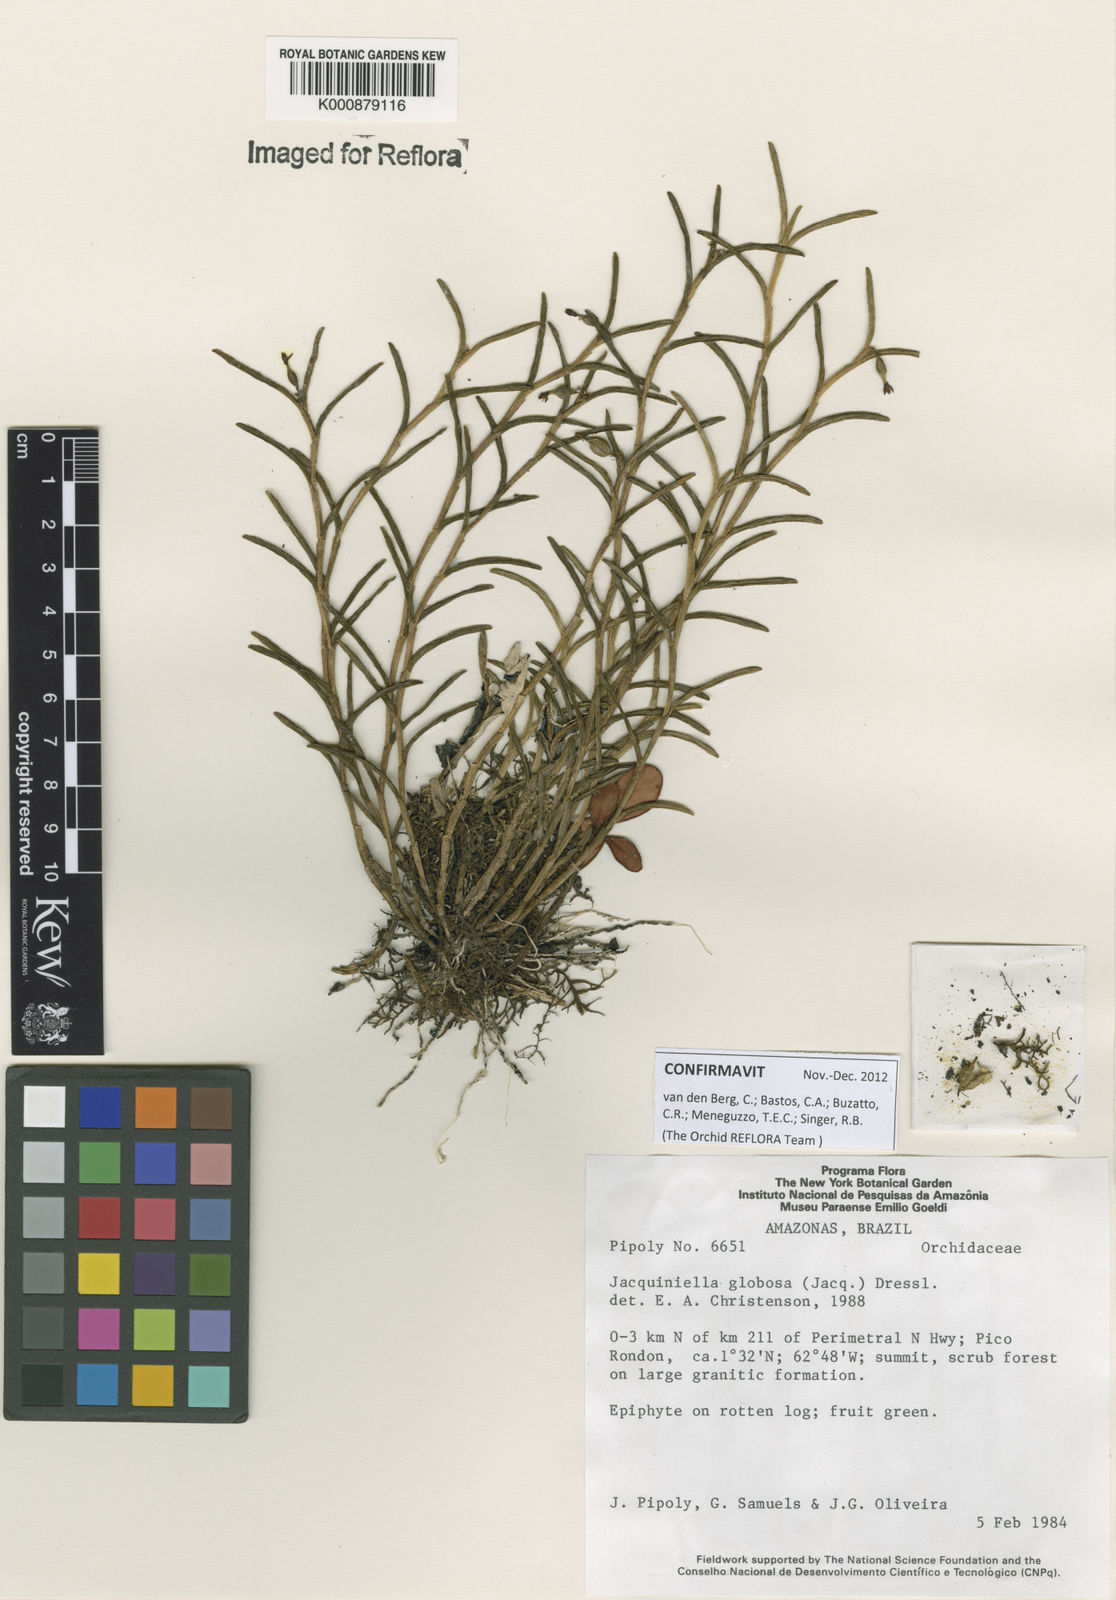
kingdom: Plantae
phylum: Tracheophyta
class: Liliopsida
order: Asparagales
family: Orchidaceae
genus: Jacquiniella
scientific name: Jacquiniella globosa
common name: Redblotch tufted orchid
